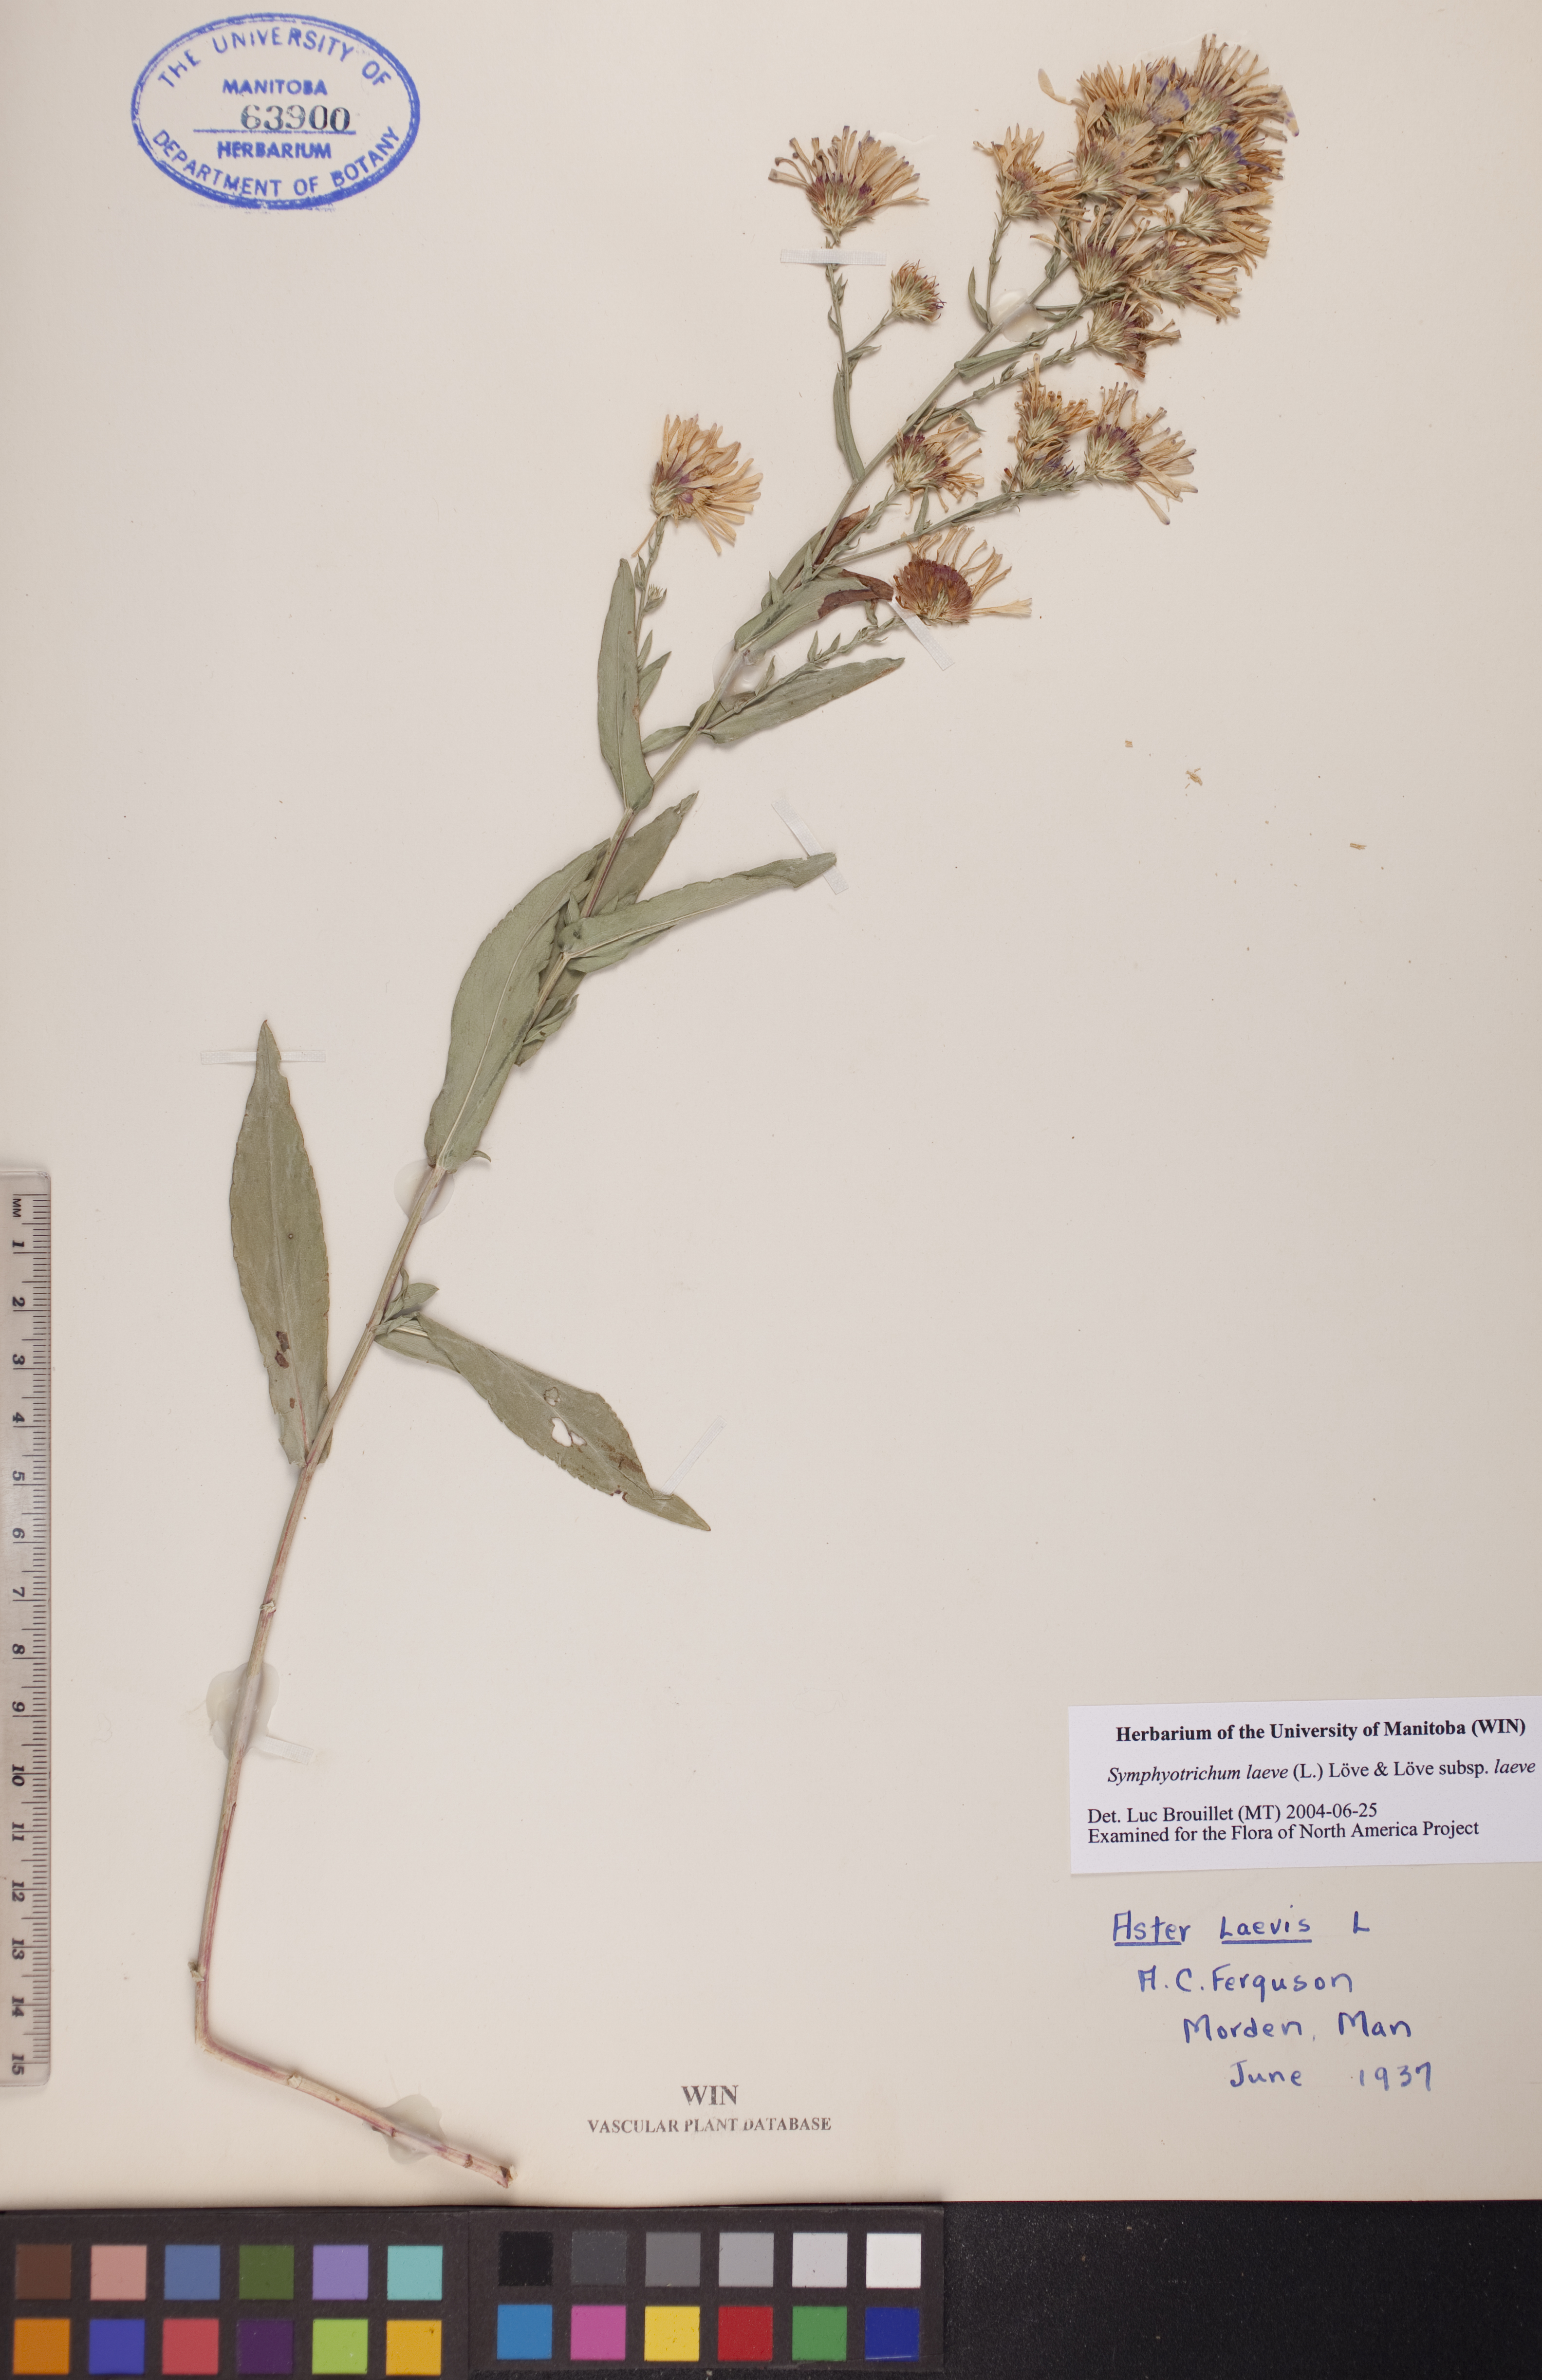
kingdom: Plantae
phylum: Tracheophyta
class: Magnoliopsida
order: Asterales
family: Asteraceae
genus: Symphyotrichum
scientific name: Symphyotrichum laeve
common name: Glaucous aster
